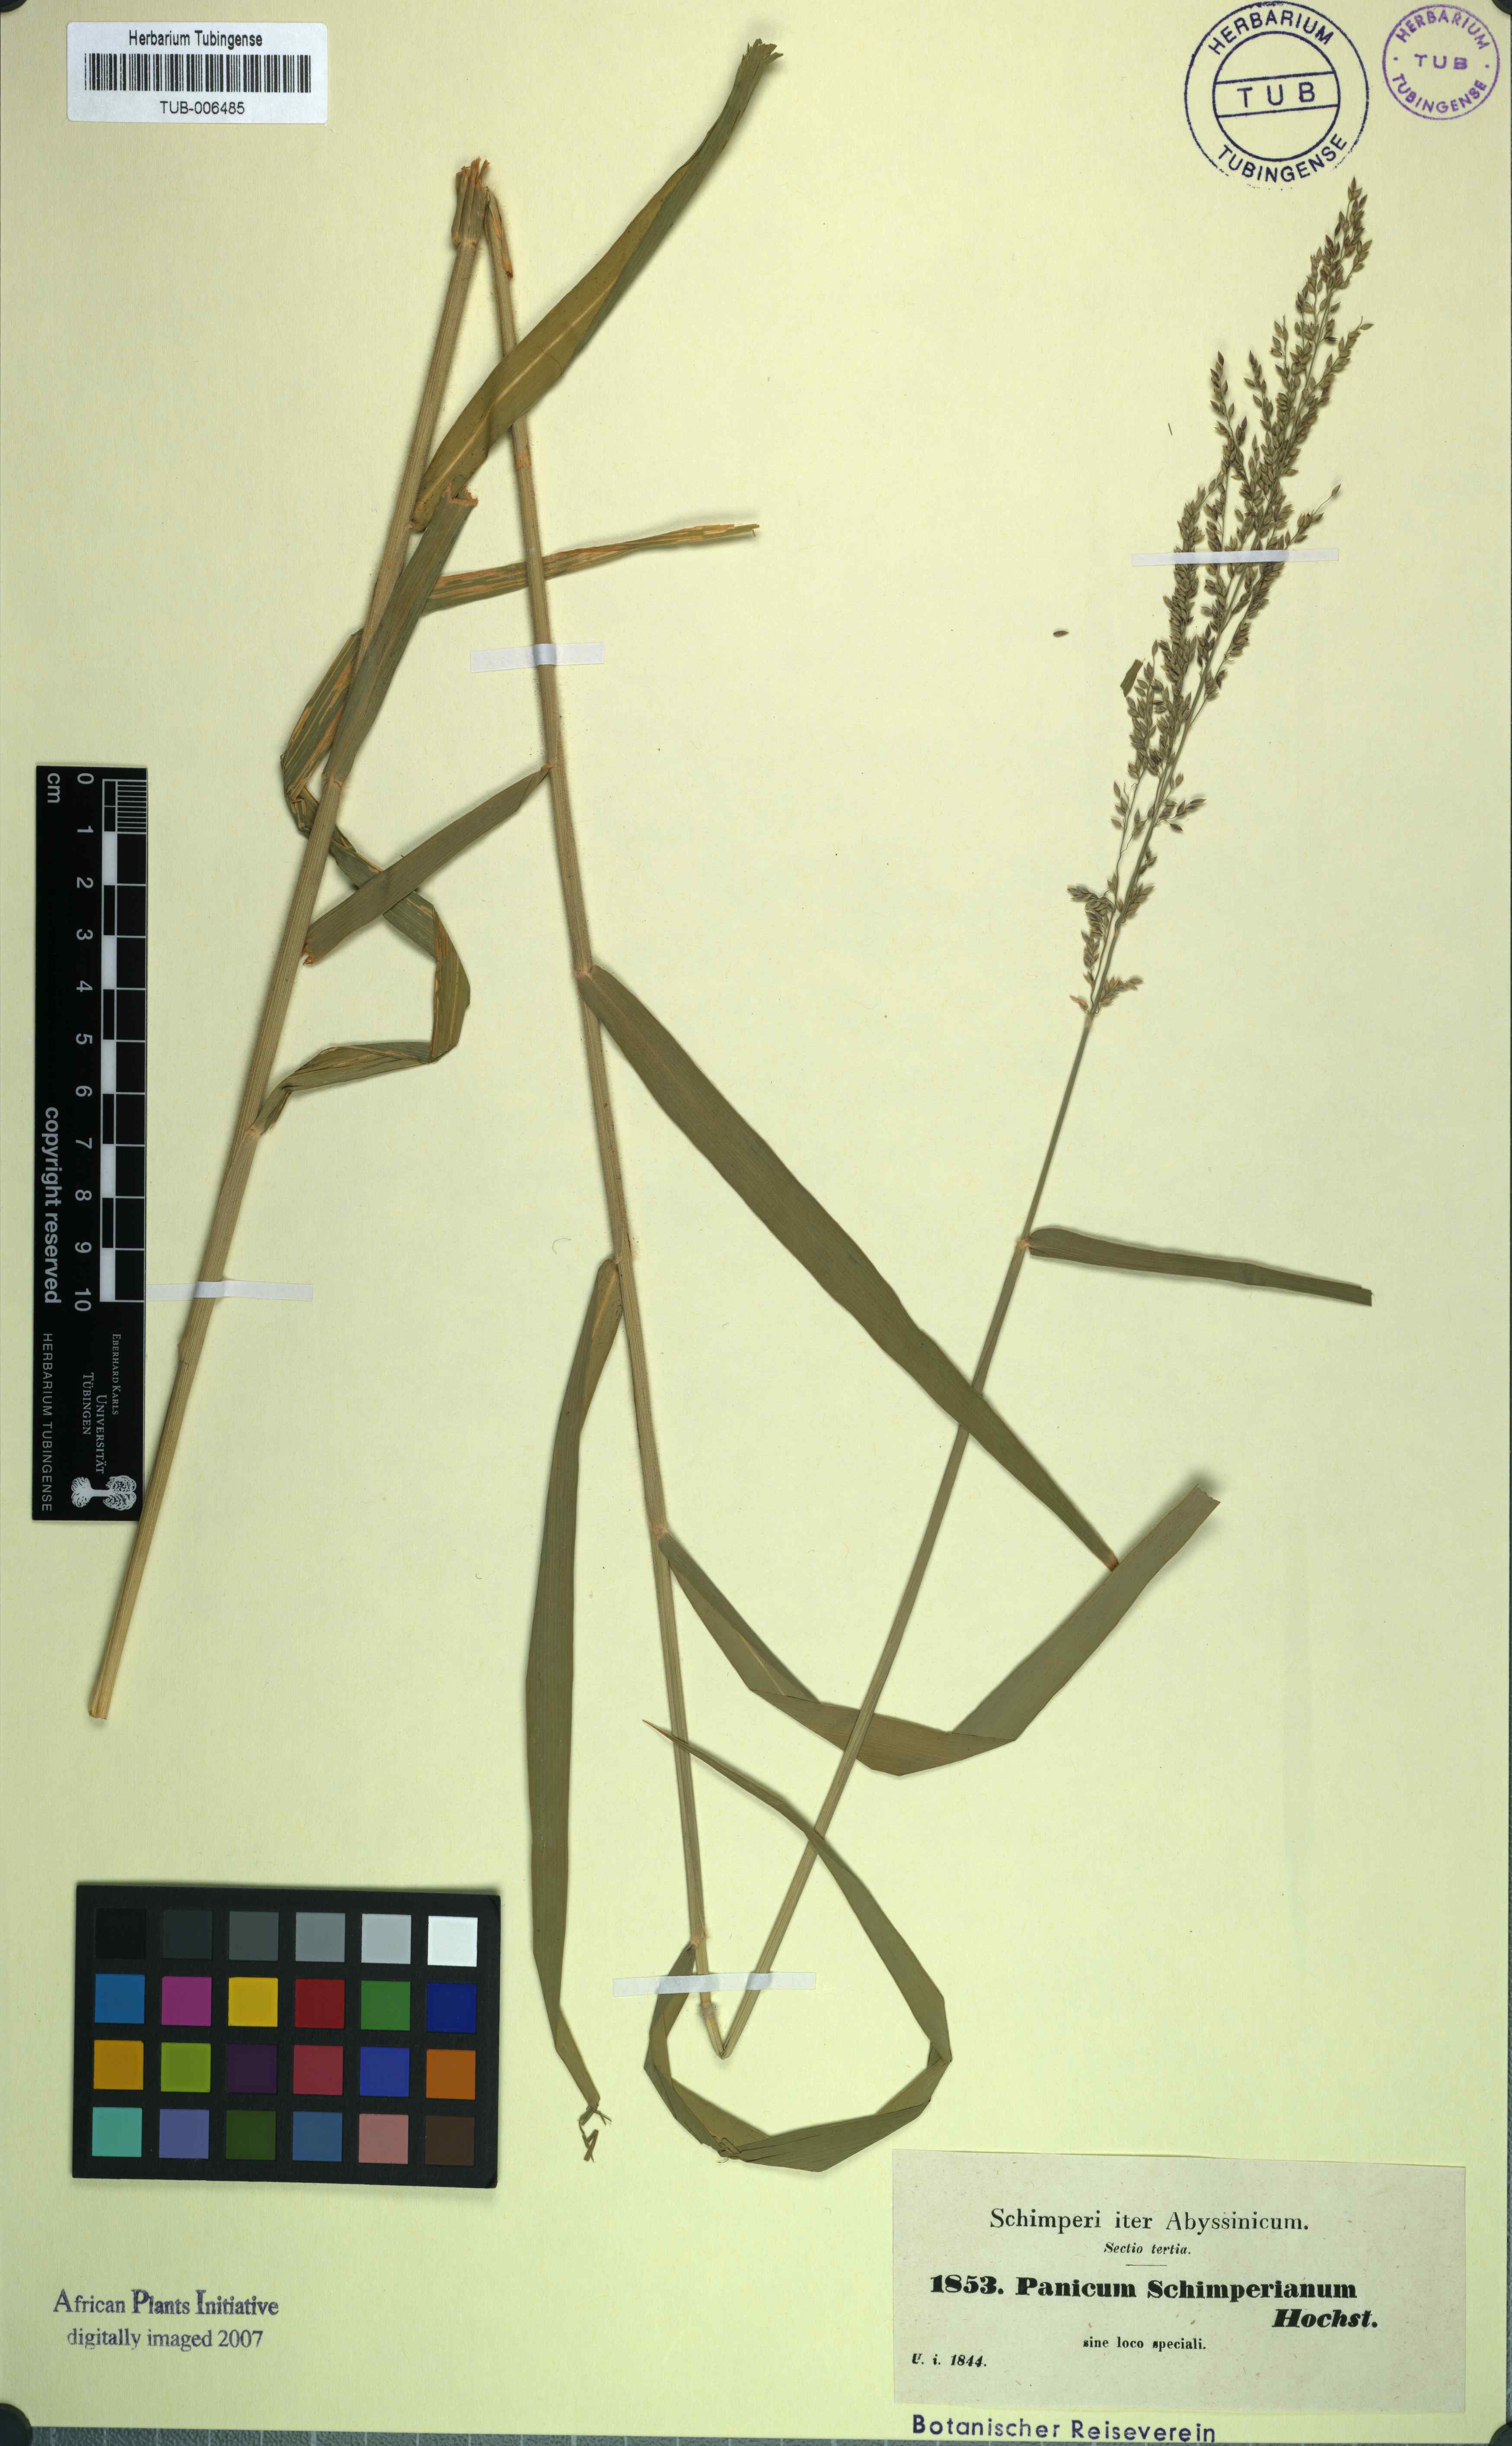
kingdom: Plantae
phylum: Tracheophyta
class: Liliopsida
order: Poales
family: Poaceae
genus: Eriochloa
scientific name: Eriochloa meyeriana
